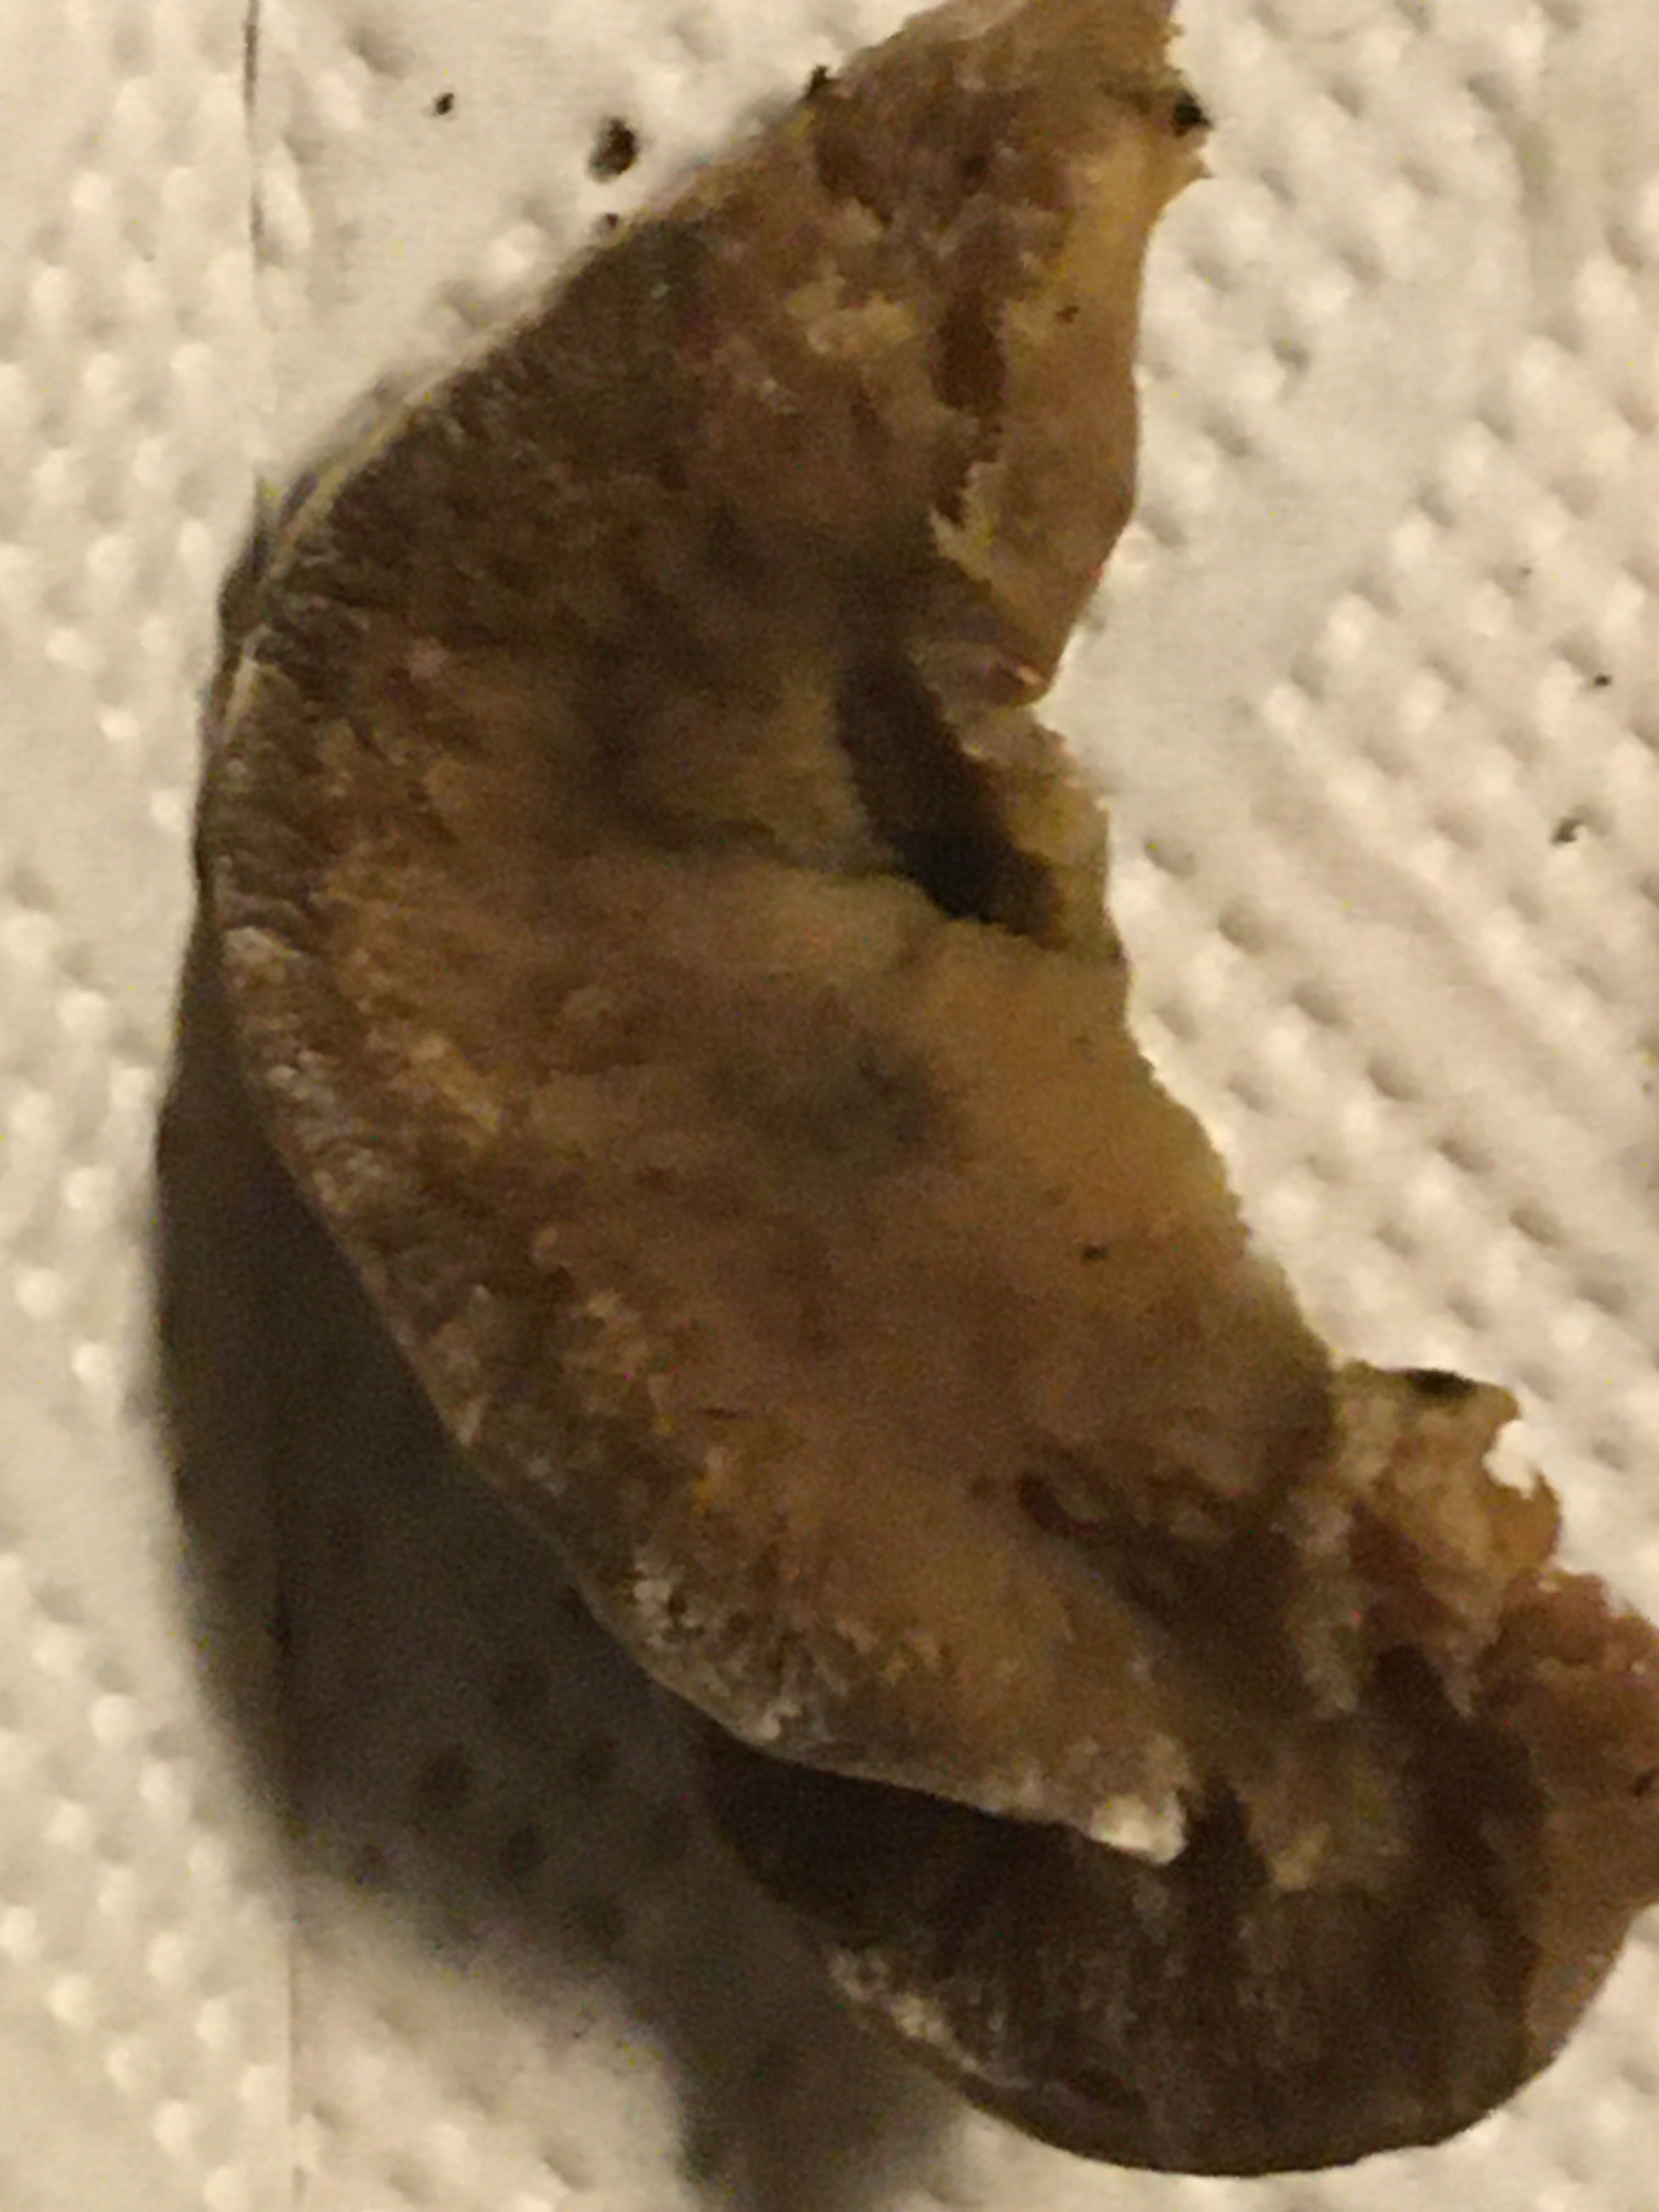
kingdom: Fungi
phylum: Basidiomycota
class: Agaricomycetes
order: Polyporales
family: Phanerochaetaceae
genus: Bjerkandera
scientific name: Bjerkandera adusta
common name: sveden sodporesvamp
